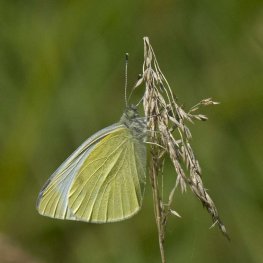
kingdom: Animalia
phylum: Arthropoda
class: Insecta
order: Lepidoptera
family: Pieridae
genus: Pieris
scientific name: Pieris rapae
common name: Cabbage White
